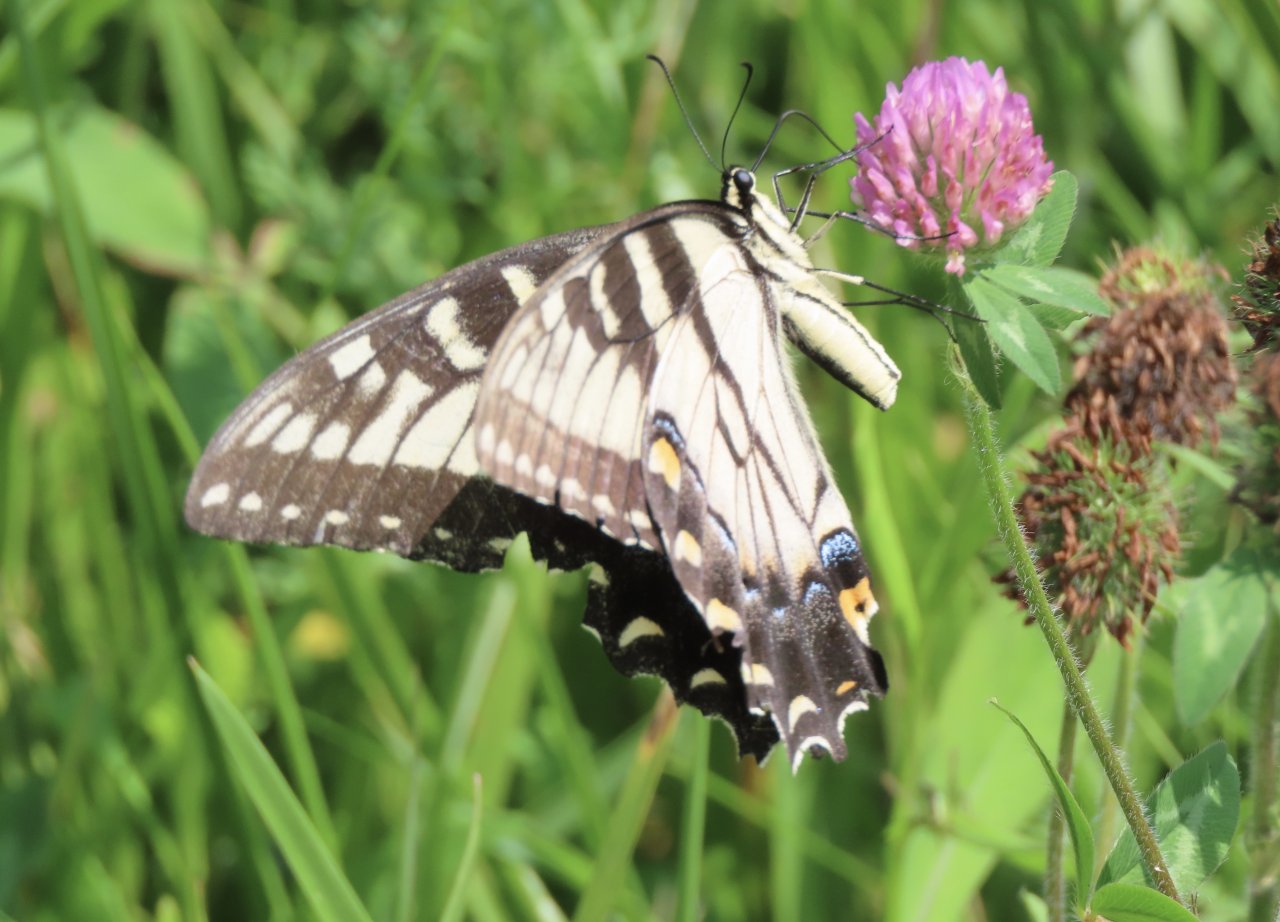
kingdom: Animalia
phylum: Arthropoda
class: Insecta
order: Lepidoptera
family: Papilionidae
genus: Pterourus
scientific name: Pterourus glaucus
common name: Eastern Tiger Swallowtail
